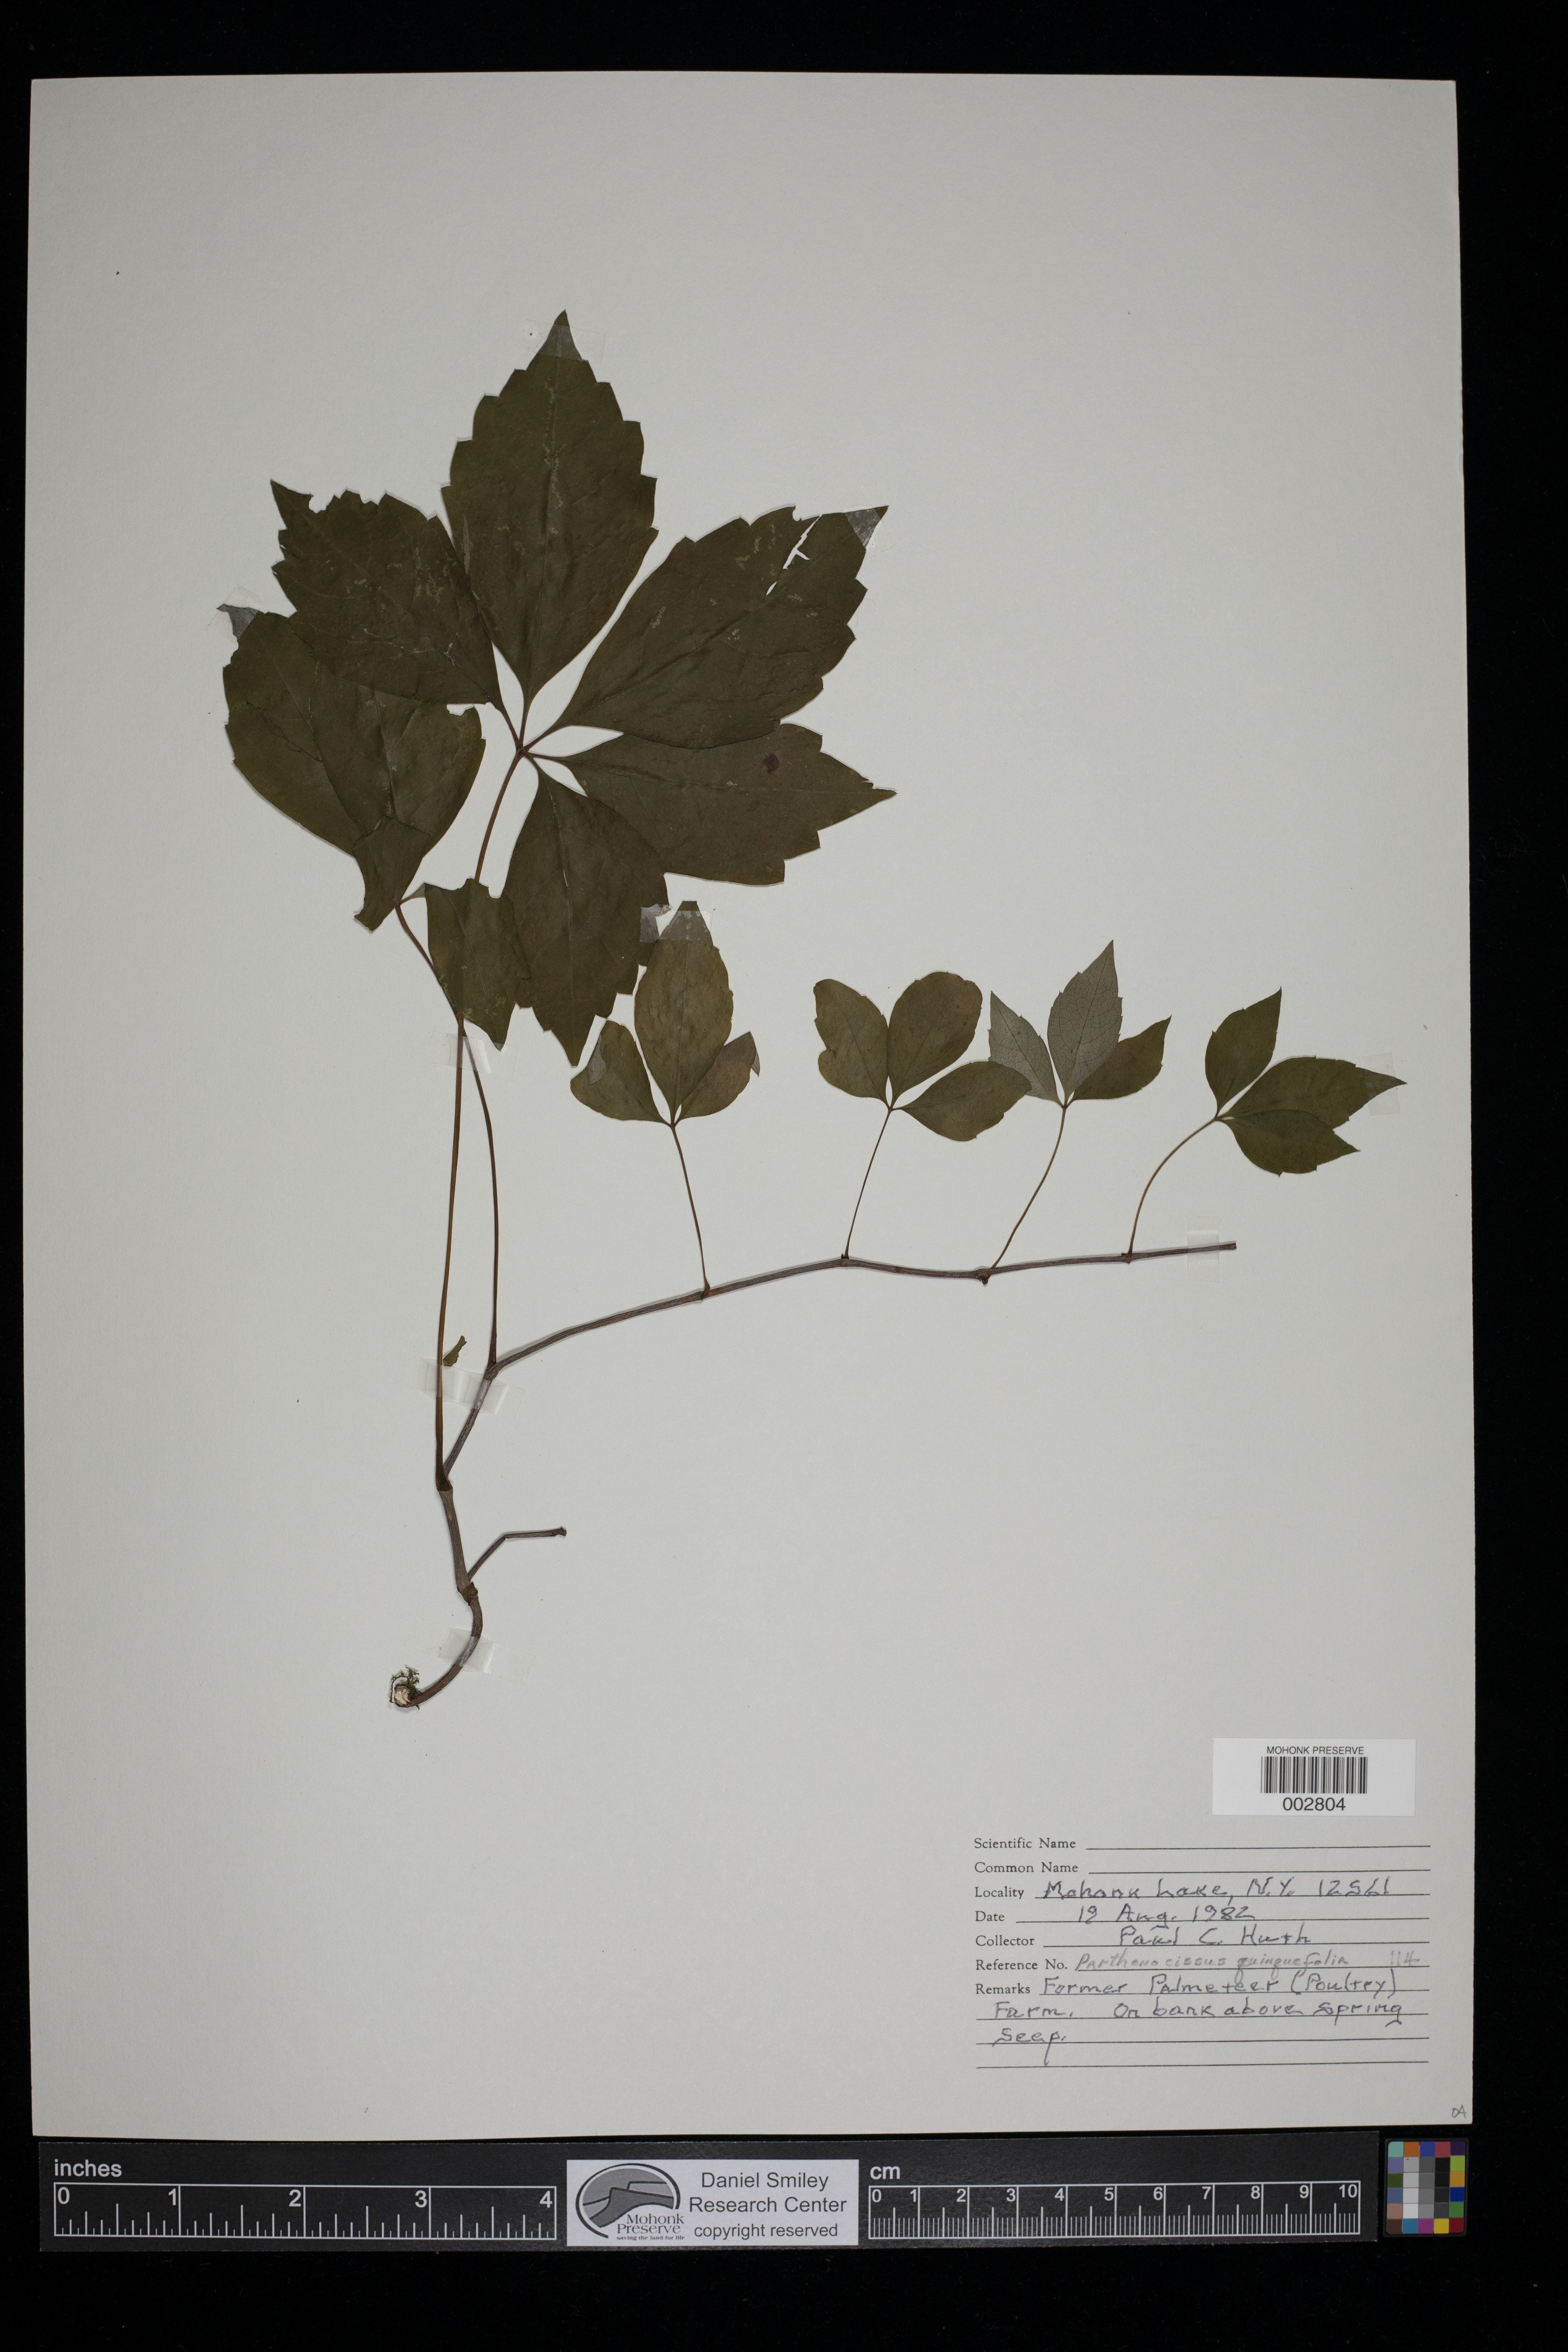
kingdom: Plantae
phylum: Tracheophyta
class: Magnoliopsida
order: Vitales
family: Vitaceae
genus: Parthenocissus
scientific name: Parthenocissus quinquefolia
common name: Virginia-creeper
